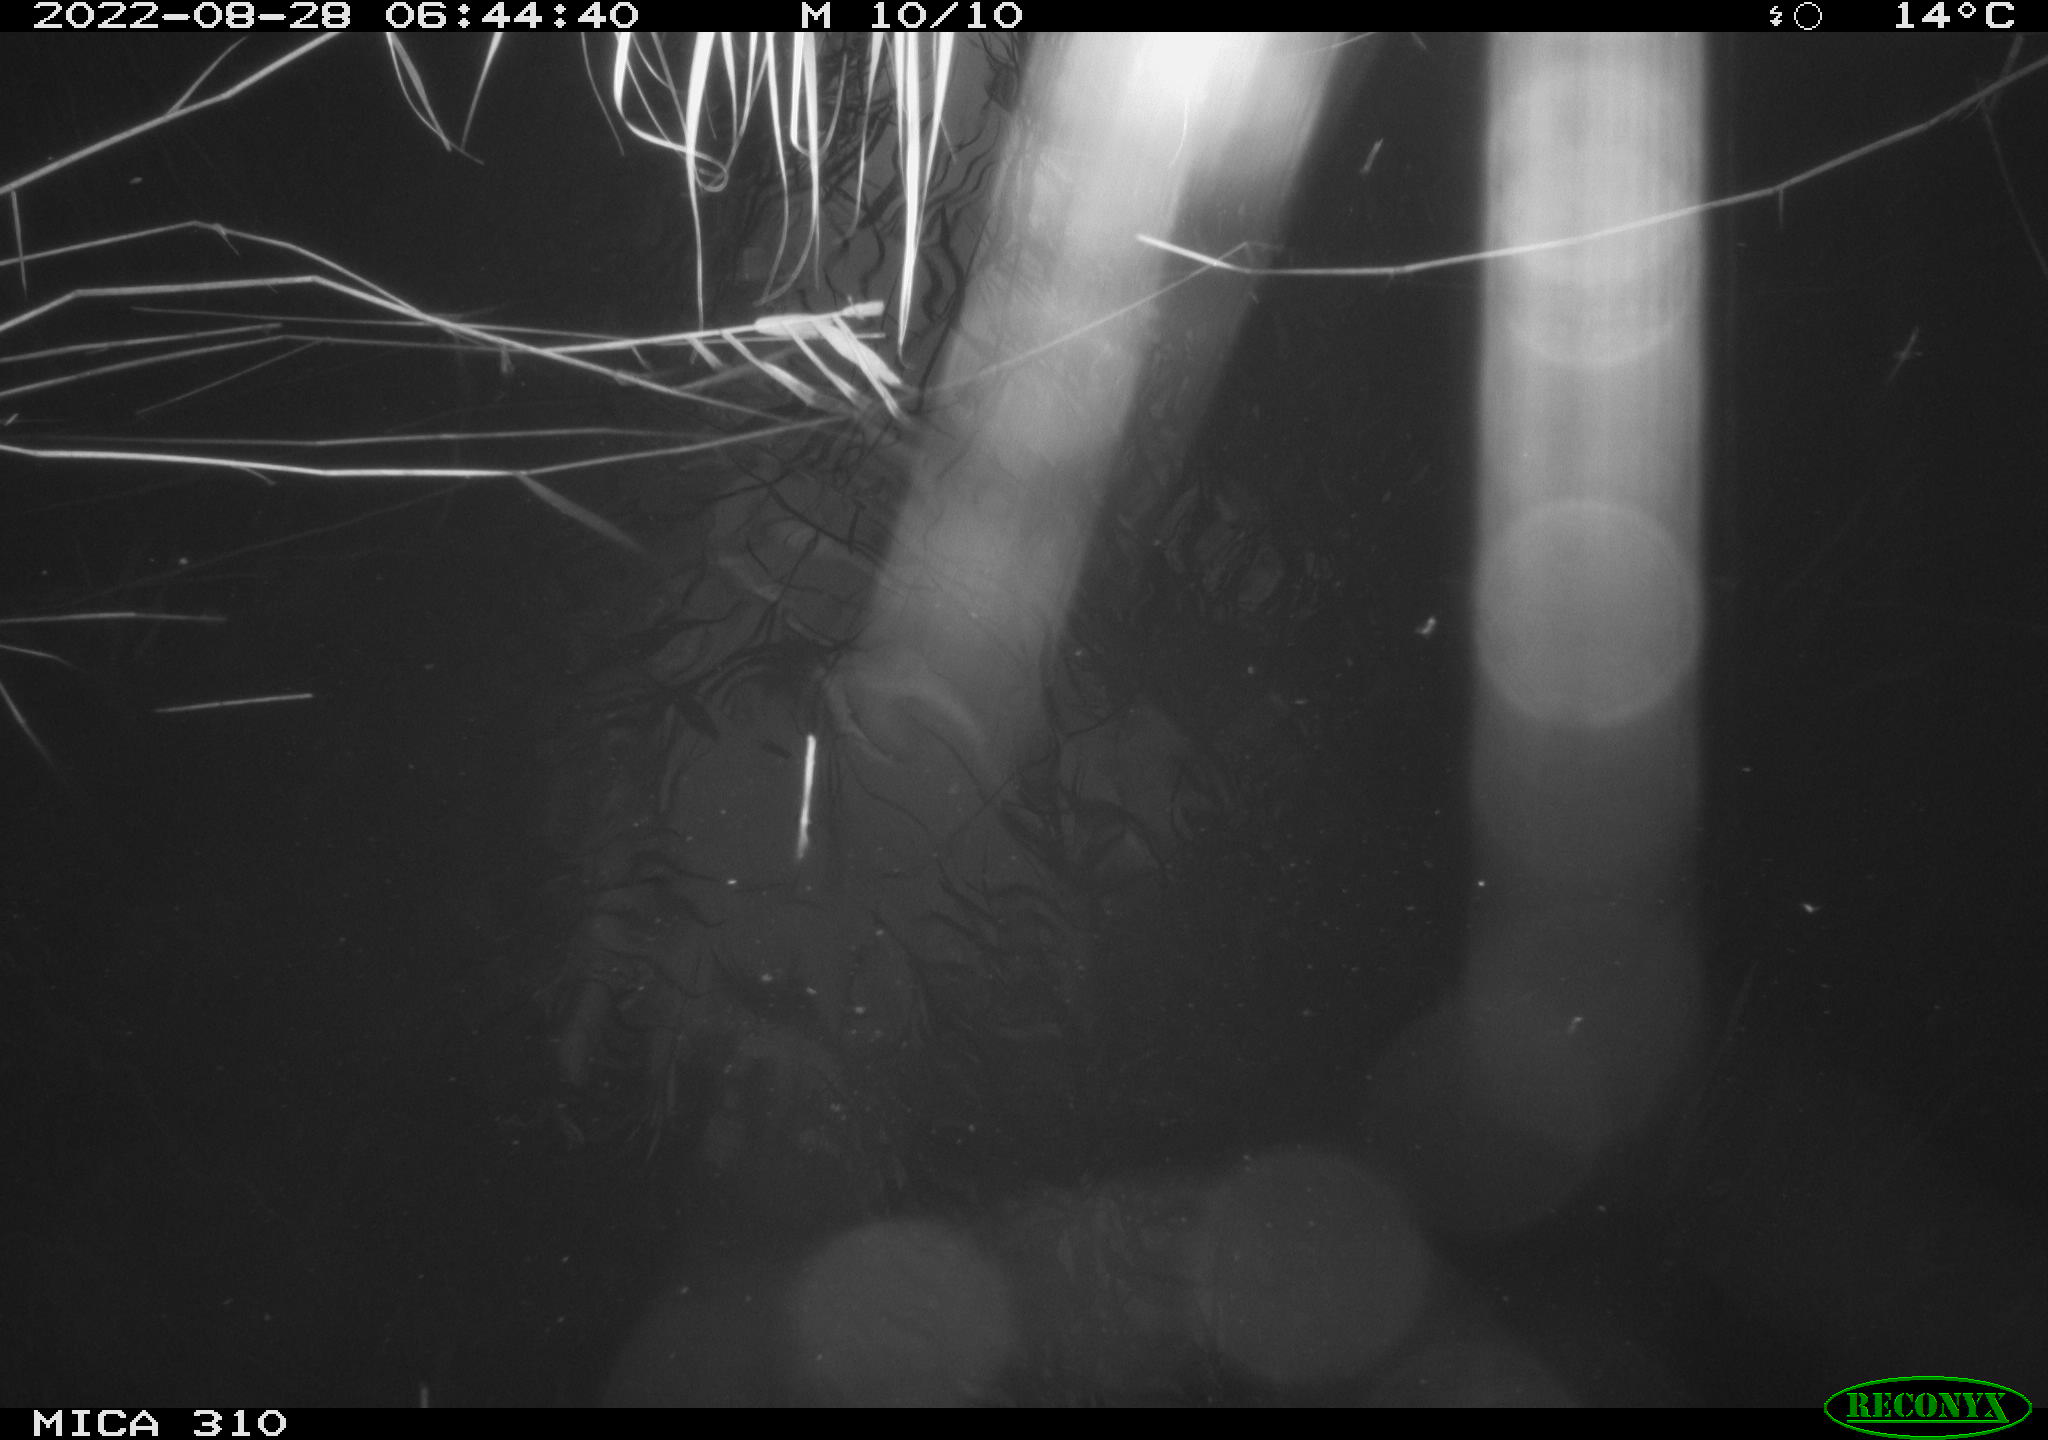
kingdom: Animalia
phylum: Chordata
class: Aves
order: Gruiformes
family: Rallidae
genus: Gallinula
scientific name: Gallinula chloropus
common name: Common moorhen
